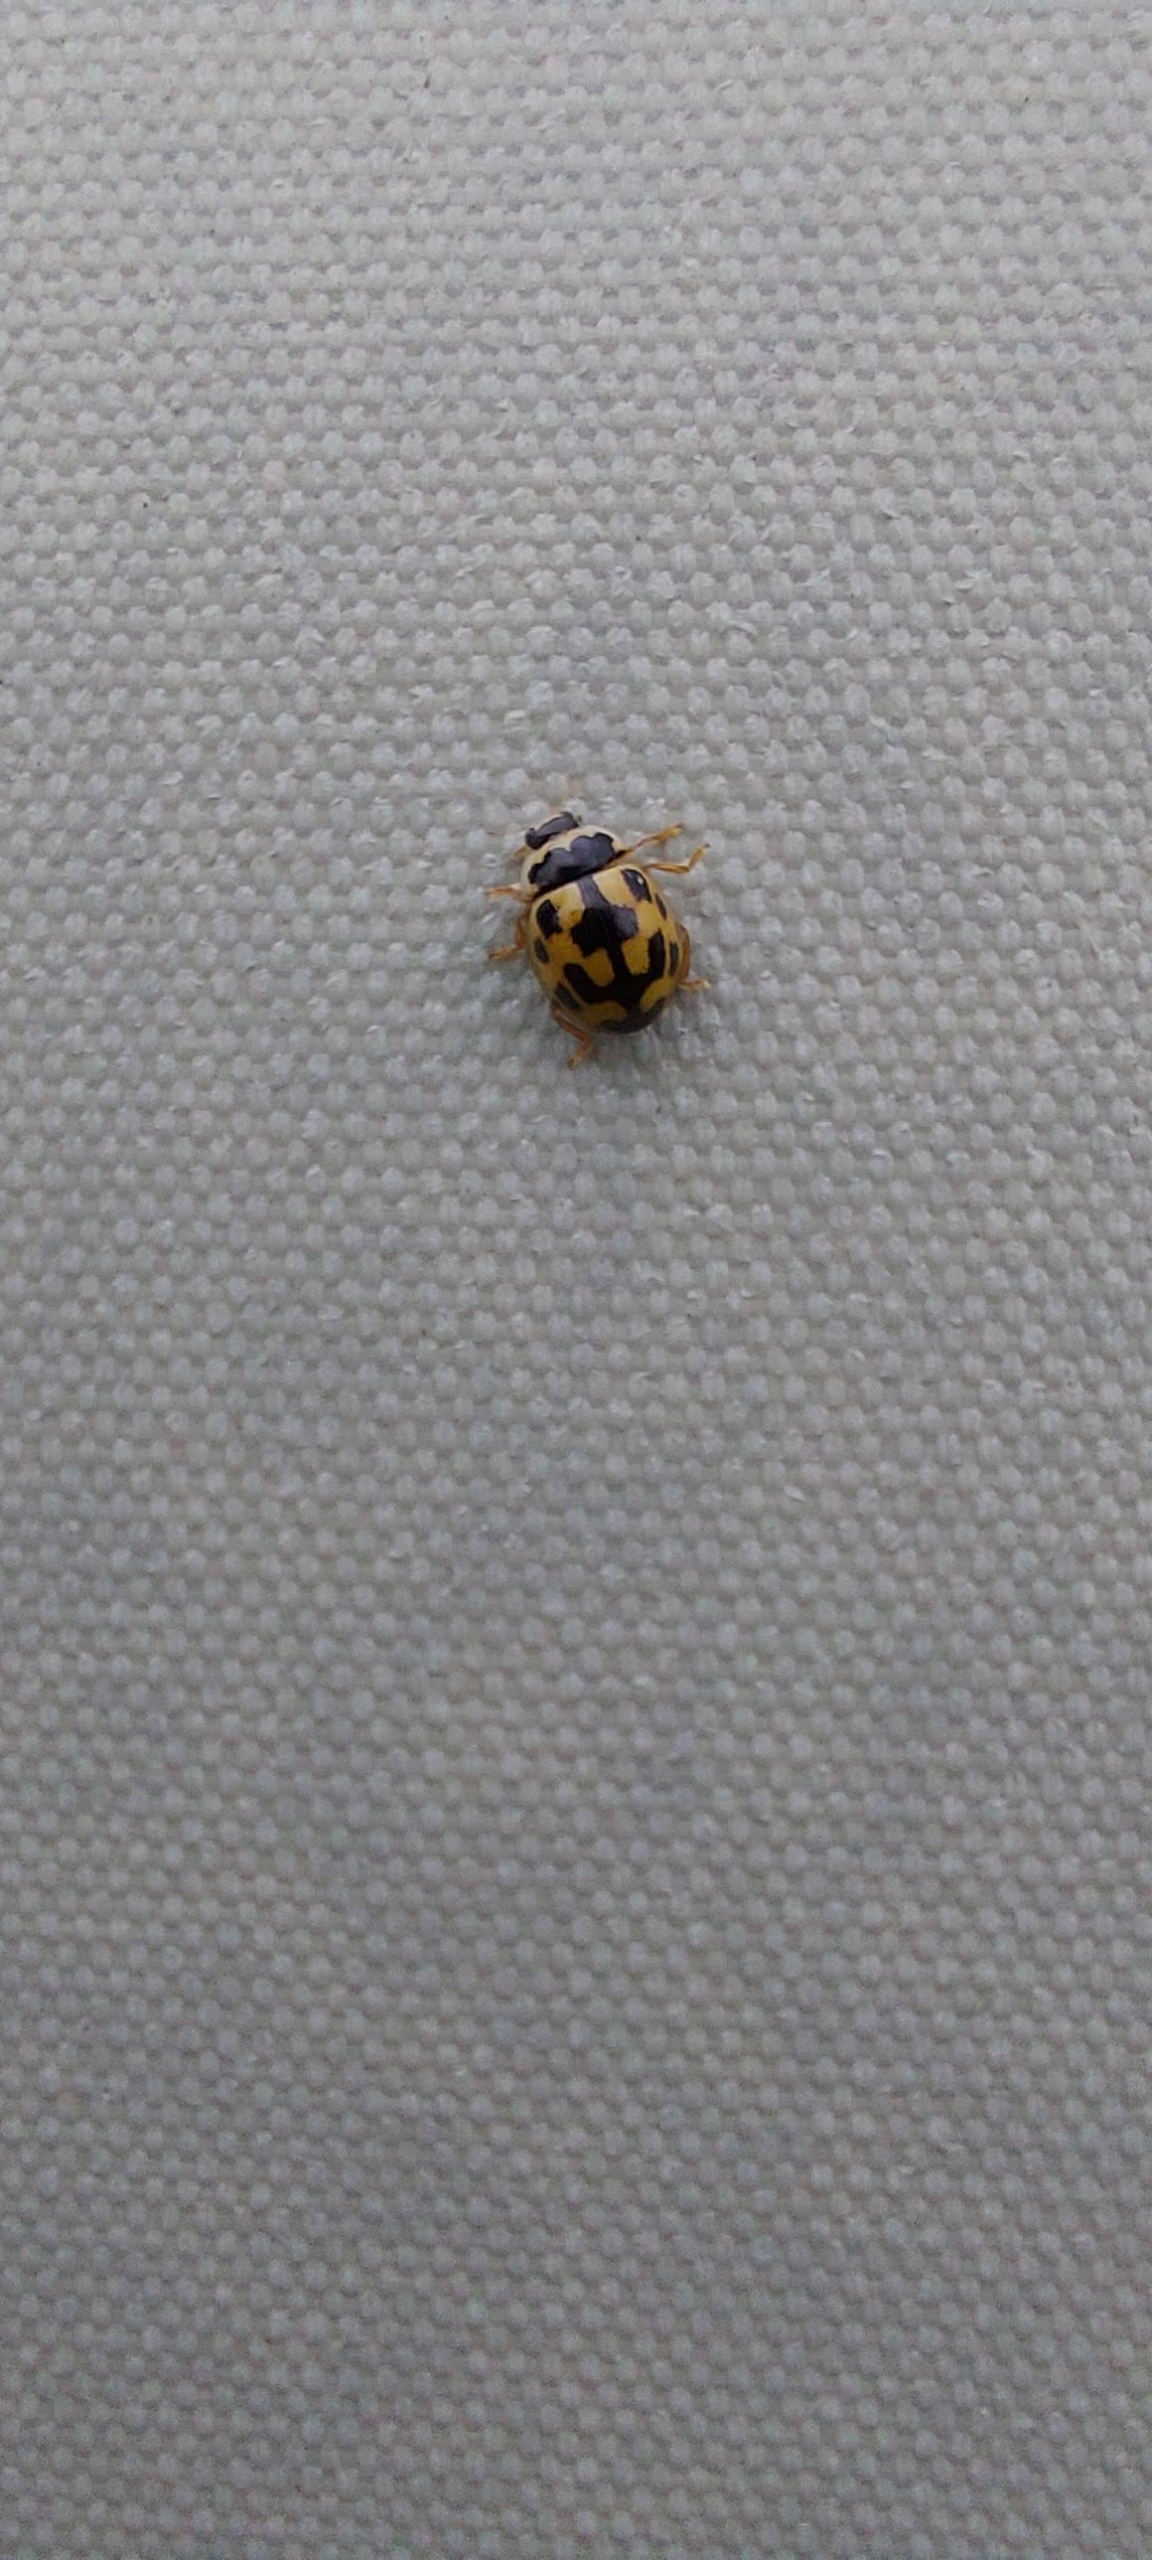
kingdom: Animalia
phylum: Arthropoda
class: Insecta
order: Coleoptera
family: Coccinellidae
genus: Propylaea
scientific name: Propylaea quatuordecimpunctata
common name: Skakbræt
